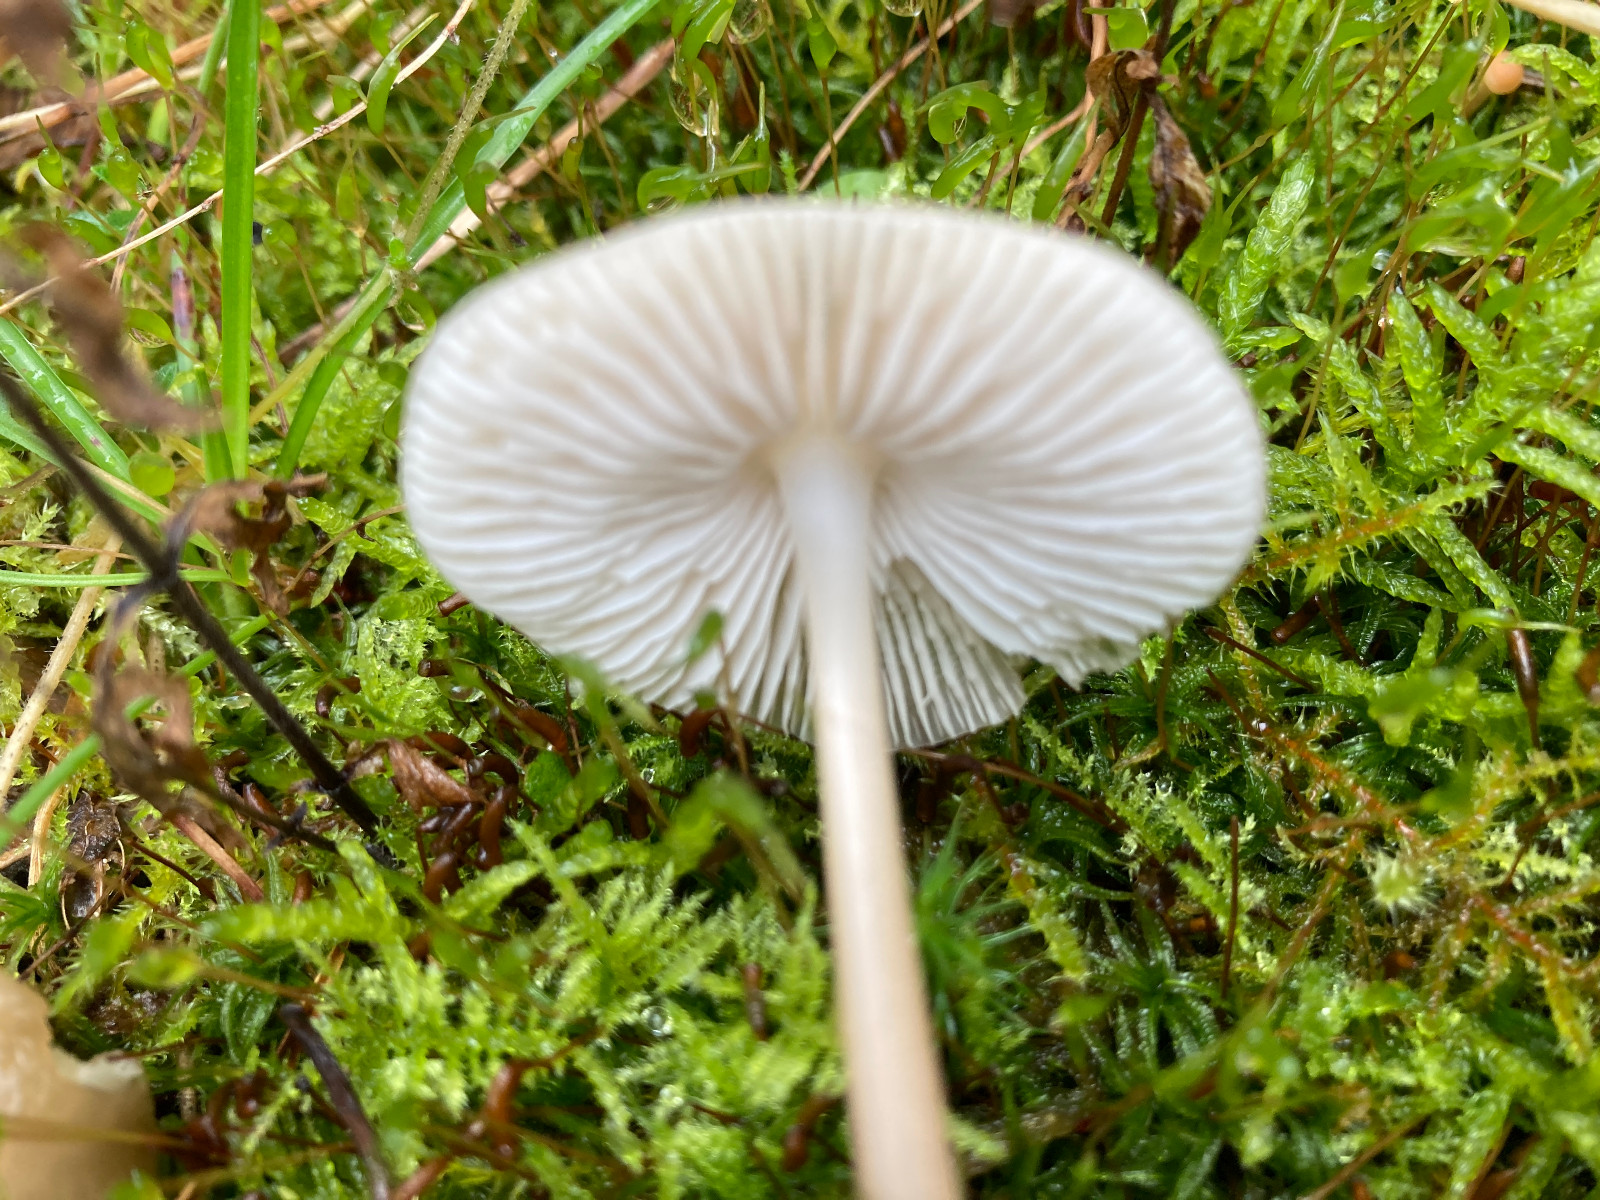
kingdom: Fungi
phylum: Basidiomycota
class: Agaricomycetes
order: Agaricales
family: Mycenaceae
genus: Mycena
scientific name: Mycena galericulata
